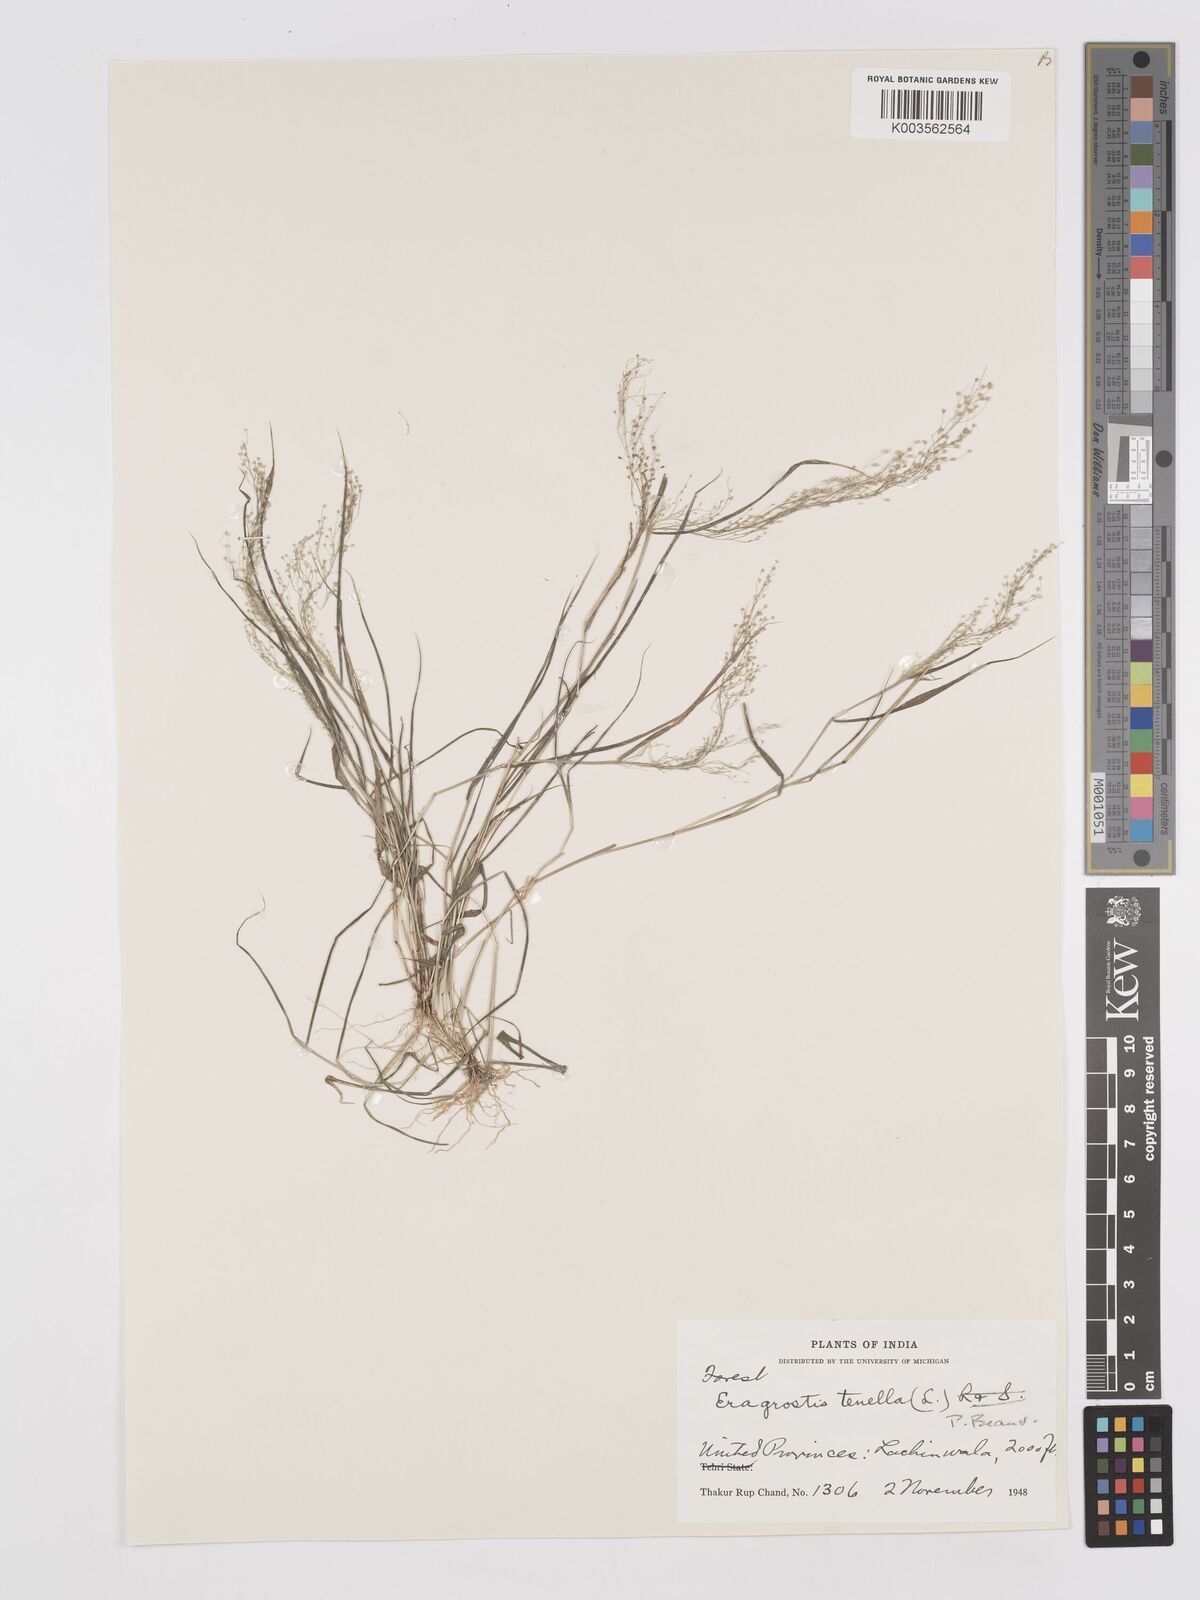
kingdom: Plantae
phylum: Tracheophyta
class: Liliopsida
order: Poales
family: Poaceae
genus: Eragrostis
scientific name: Eragrostis tenella
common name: Japanese lovegrass
